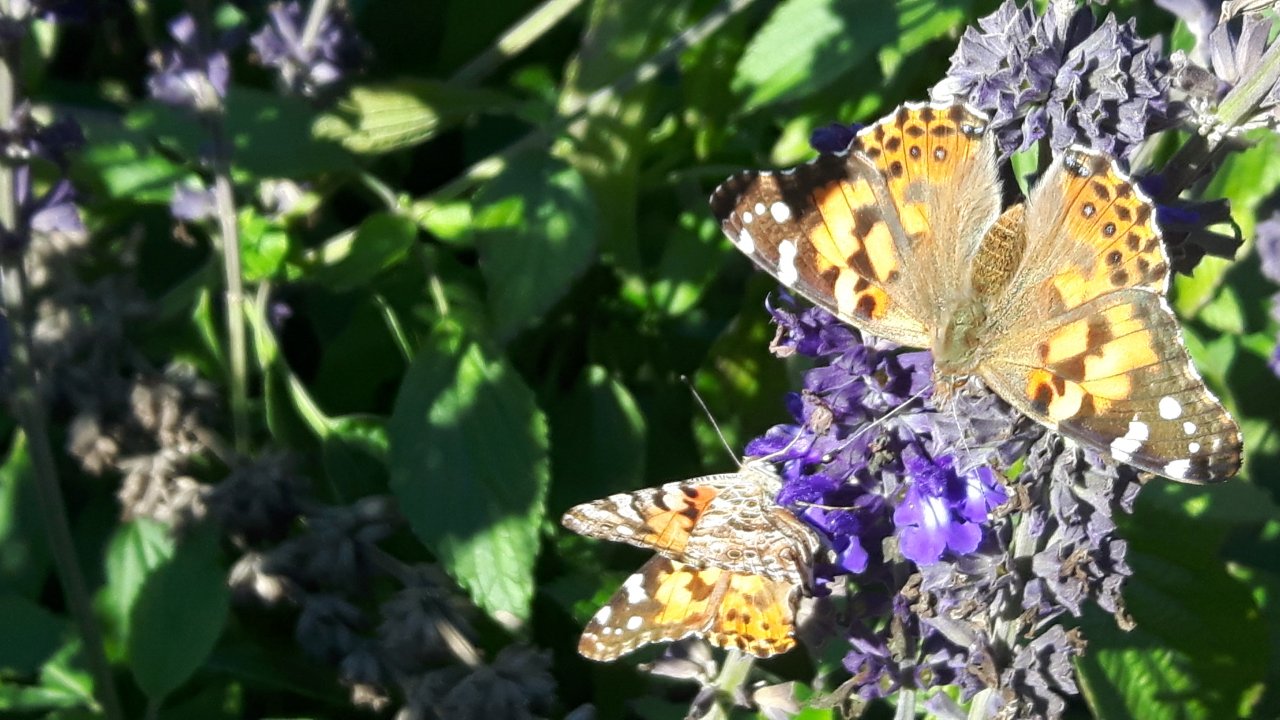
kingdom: Animalia
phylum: Arthropoda
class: Insecta
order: Lepidoptera
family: Nymphalidae
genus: Vanessa
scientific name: Vanessa cardui
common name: Painted Lady
